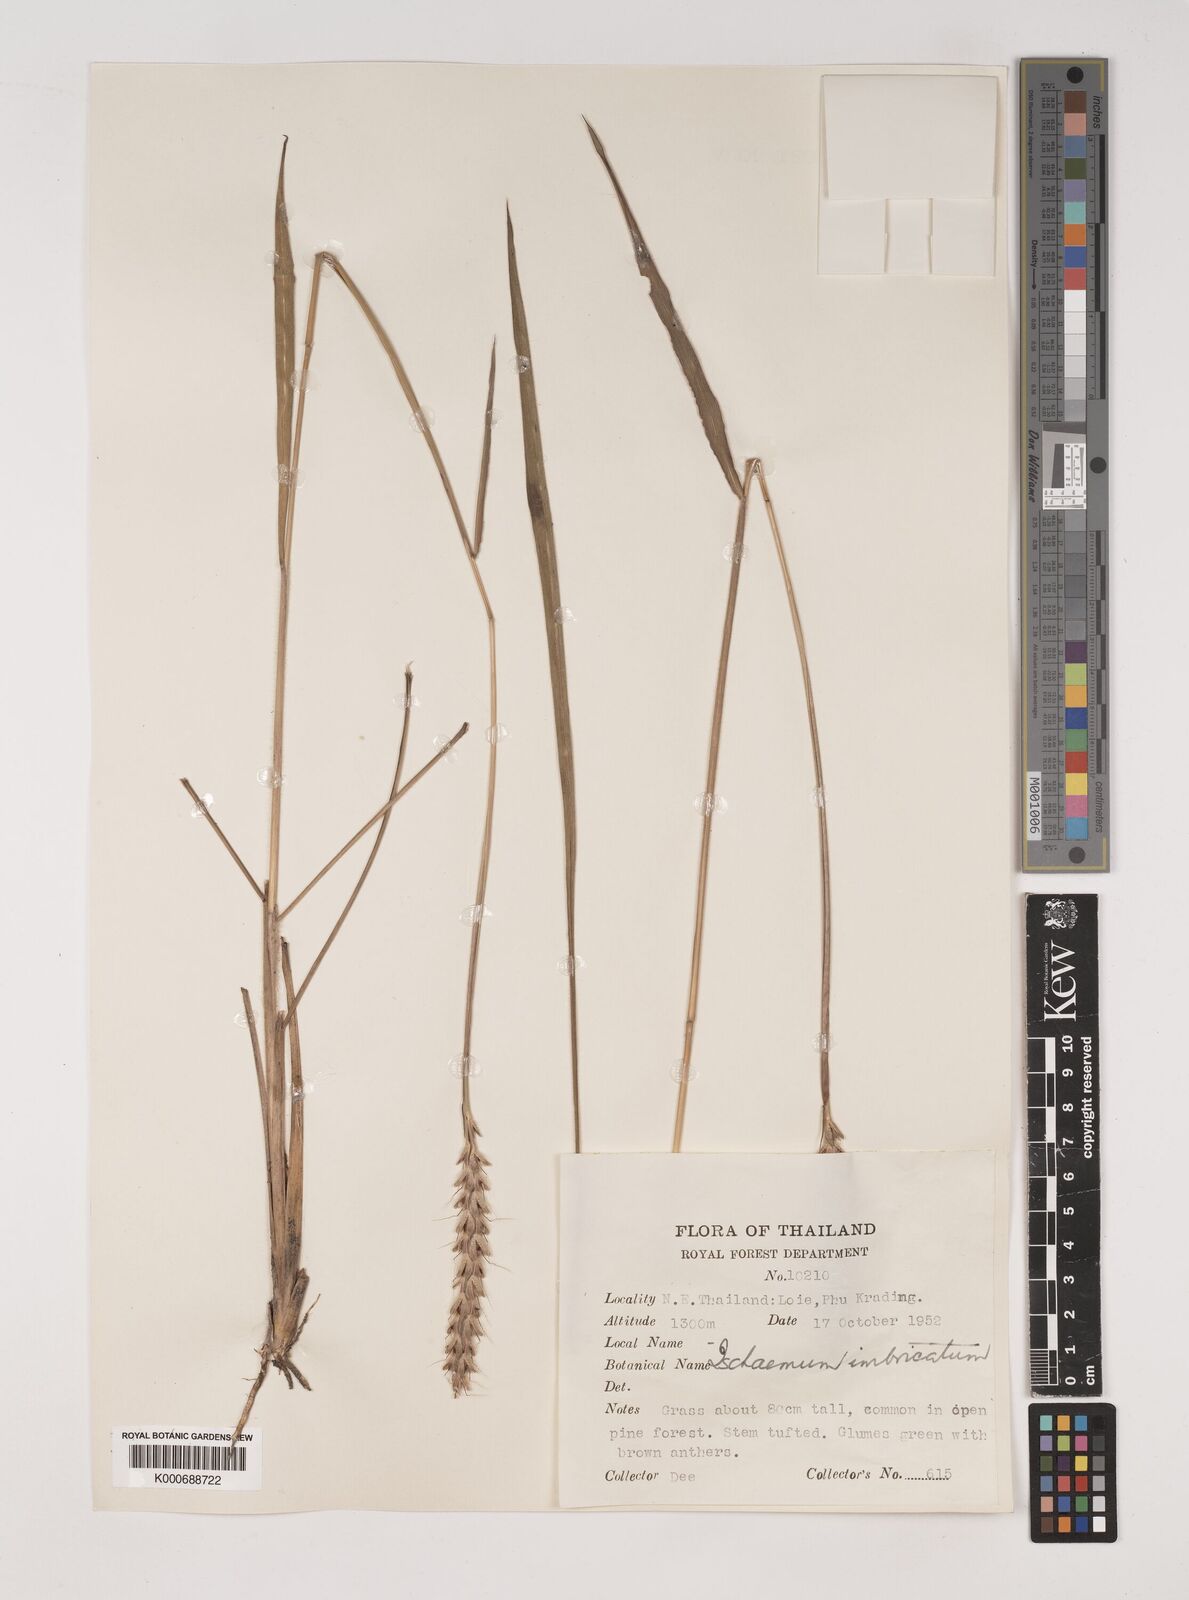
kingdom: Plantae
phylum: Tracheophyta
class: Liliopsida
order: Poales
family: Poaceae
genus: Ischaemum
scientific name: Ischaemum barbatum
